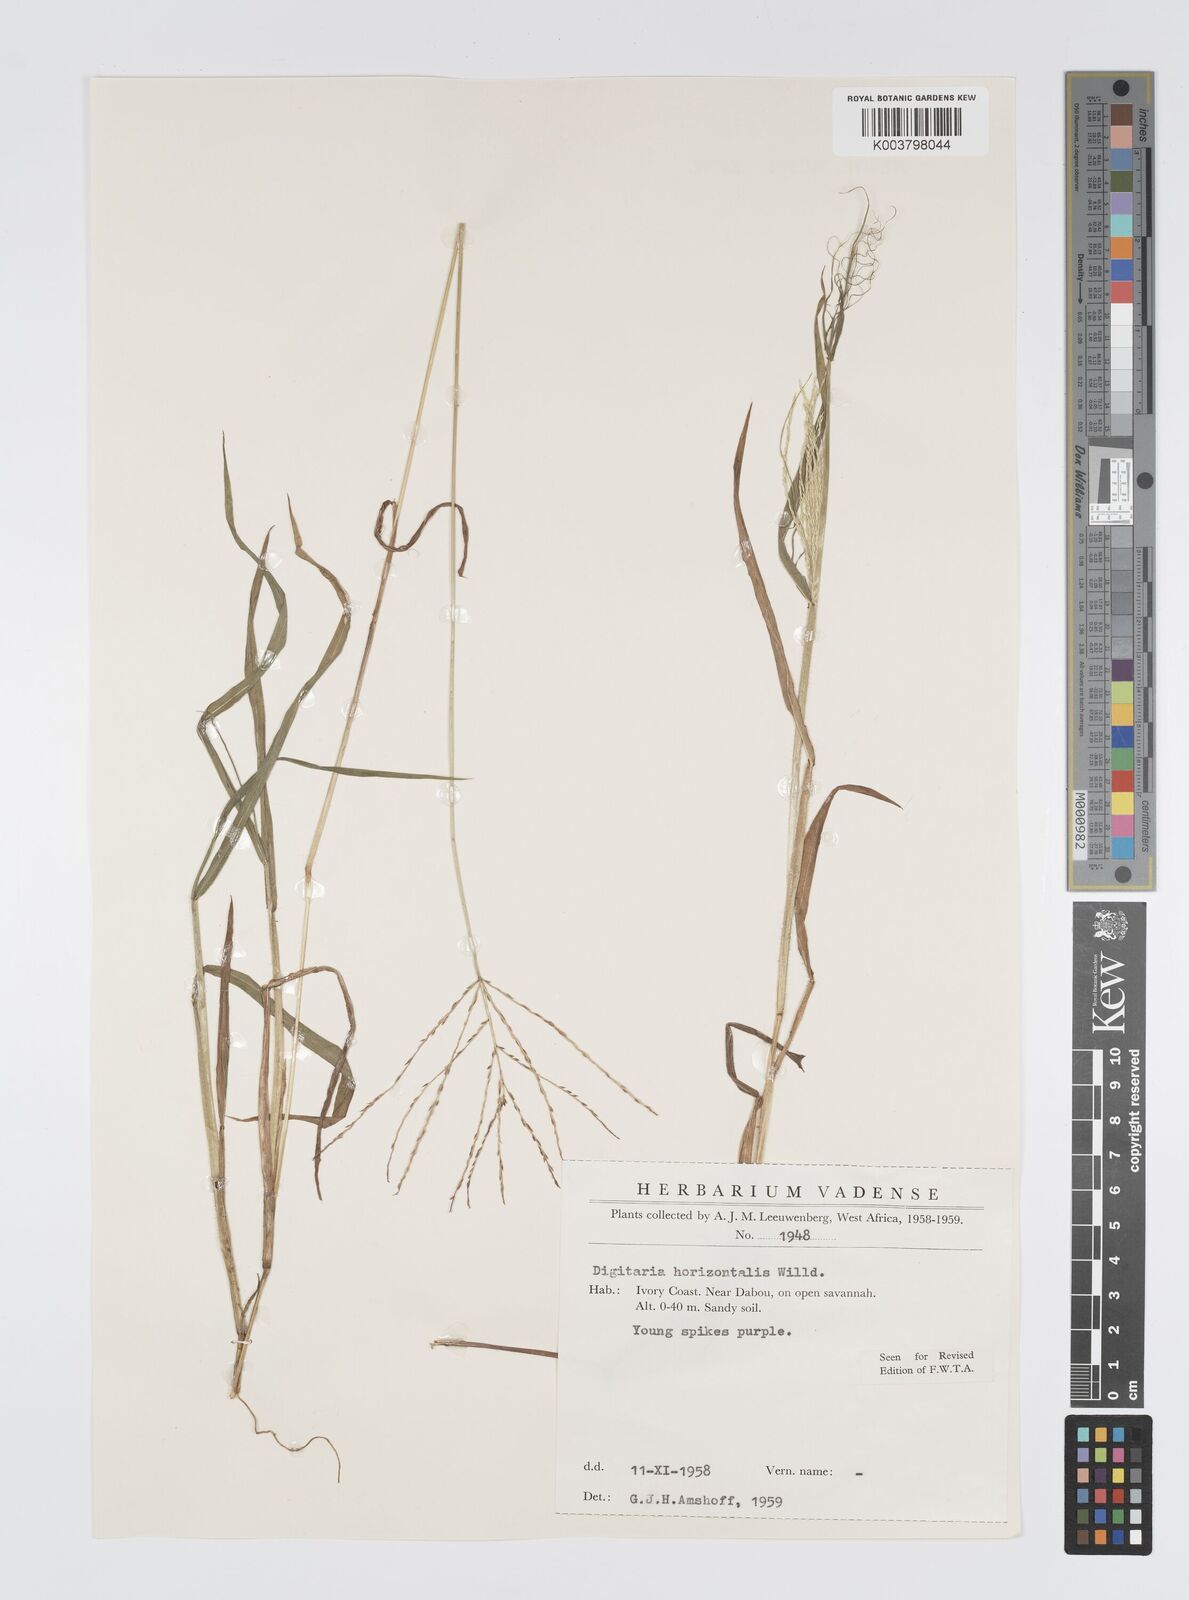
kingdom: Plantae
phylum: Tracheophyta
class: Liliopsida
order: Poales
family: Poaceae
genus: Digitaria
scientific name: Digitaria horizontalis
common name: Jamaican crabgrass
